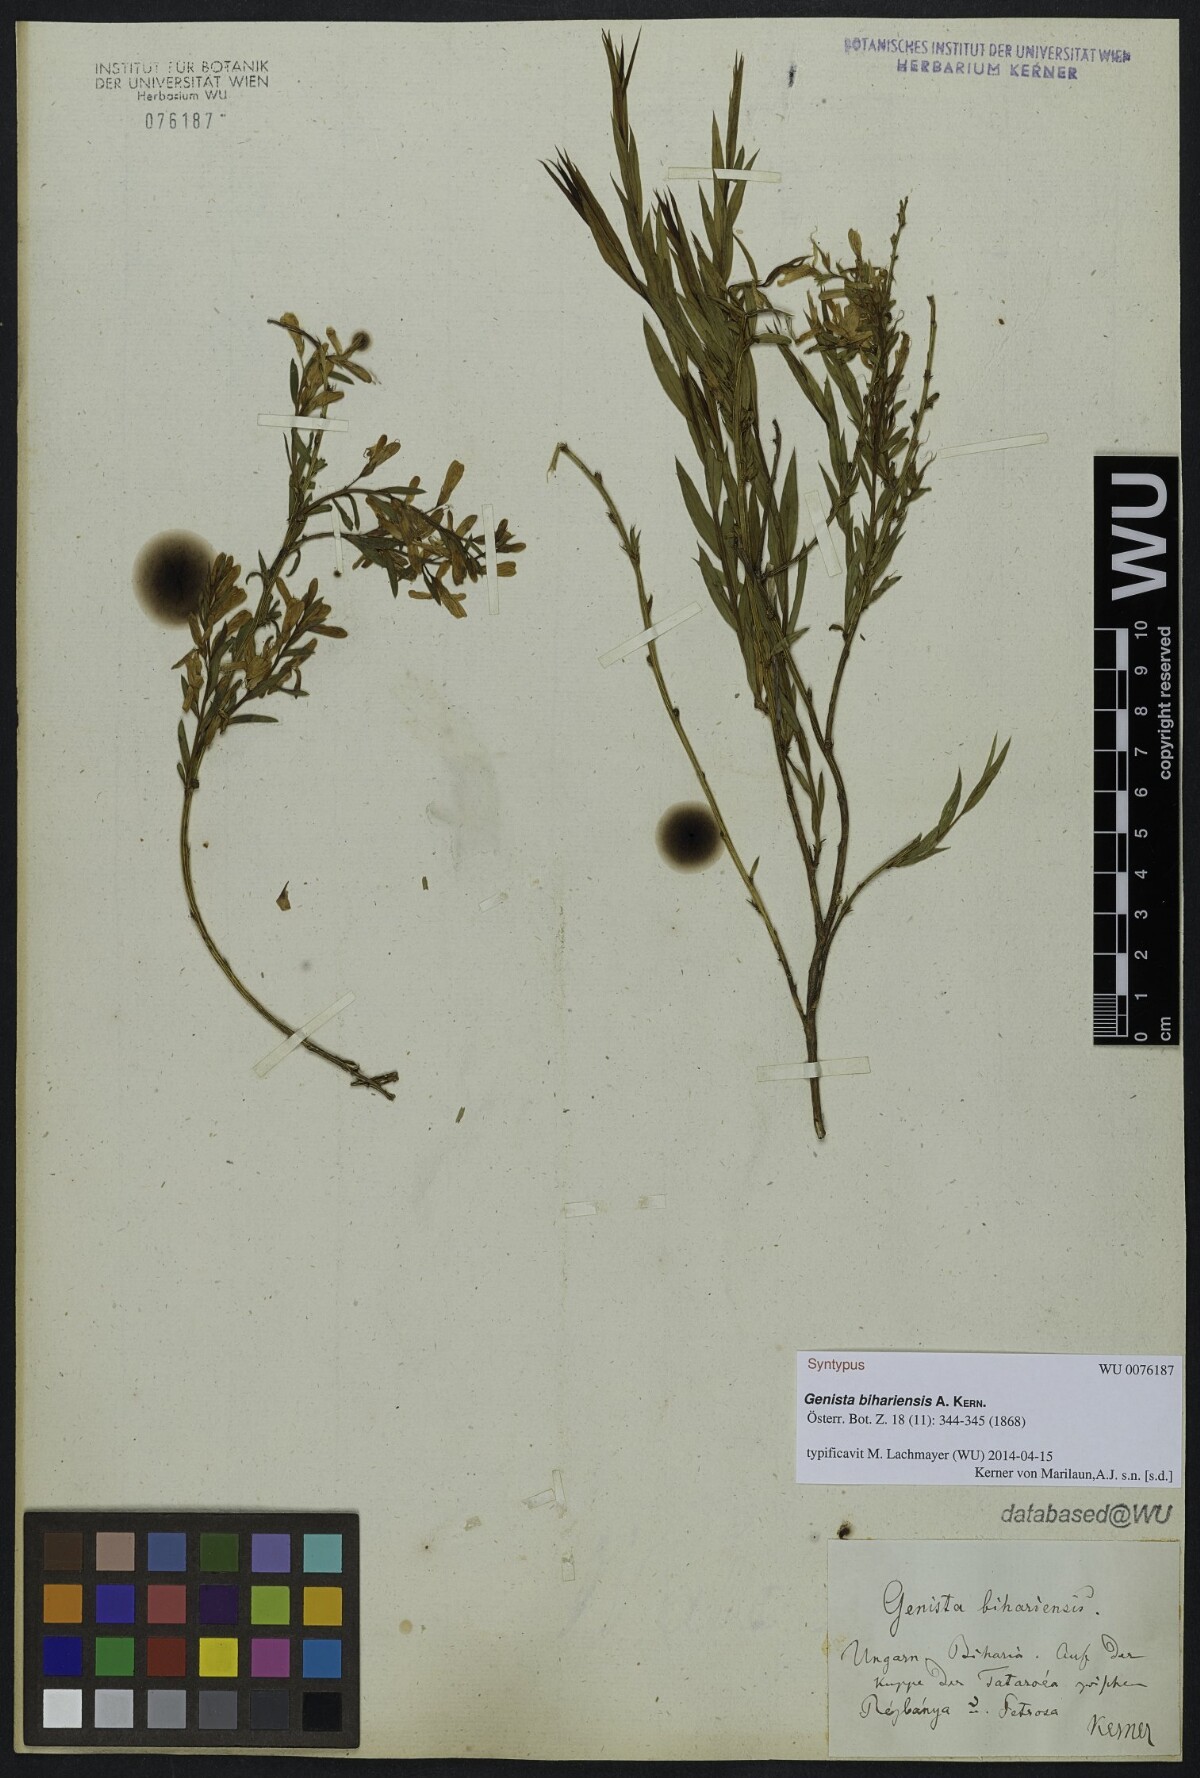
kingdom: Plantae
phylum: Tracheophyta
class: Magnoliopsida
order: Fabales
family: Fabaceae
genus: Genista
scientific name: Genista
